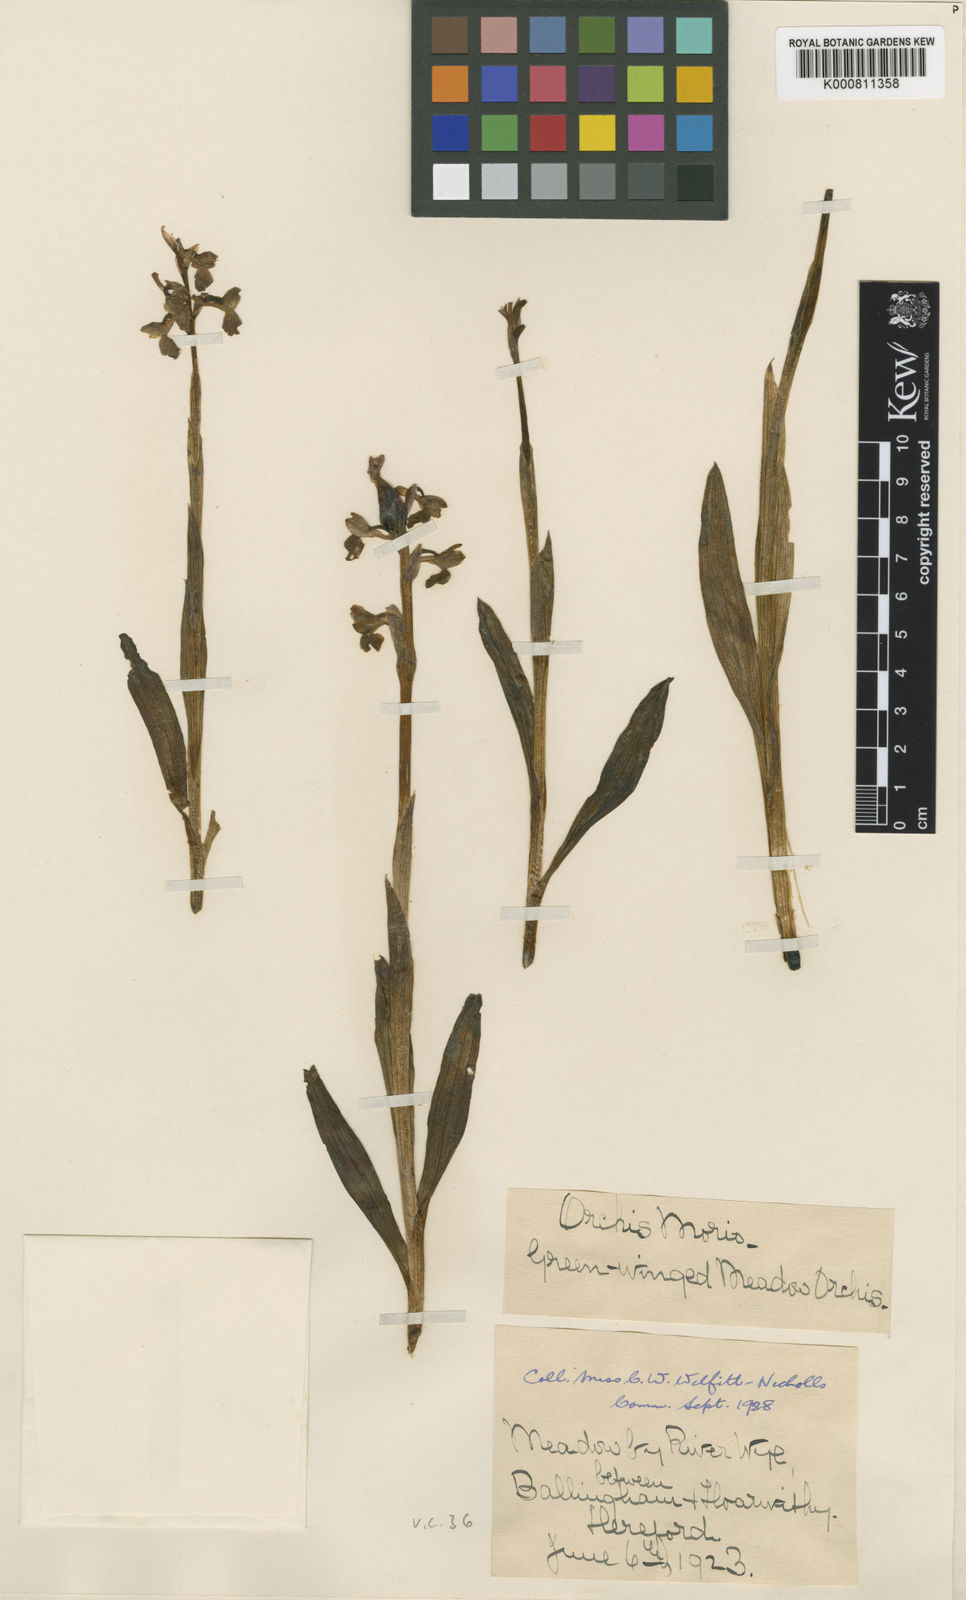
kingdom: Plantae
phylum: Tracheophyta
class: Liliopsida
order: Asparagales
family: Orchidaceae
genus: Anacamptis
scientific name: Anacamptis morio
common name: Green-winged orchid
